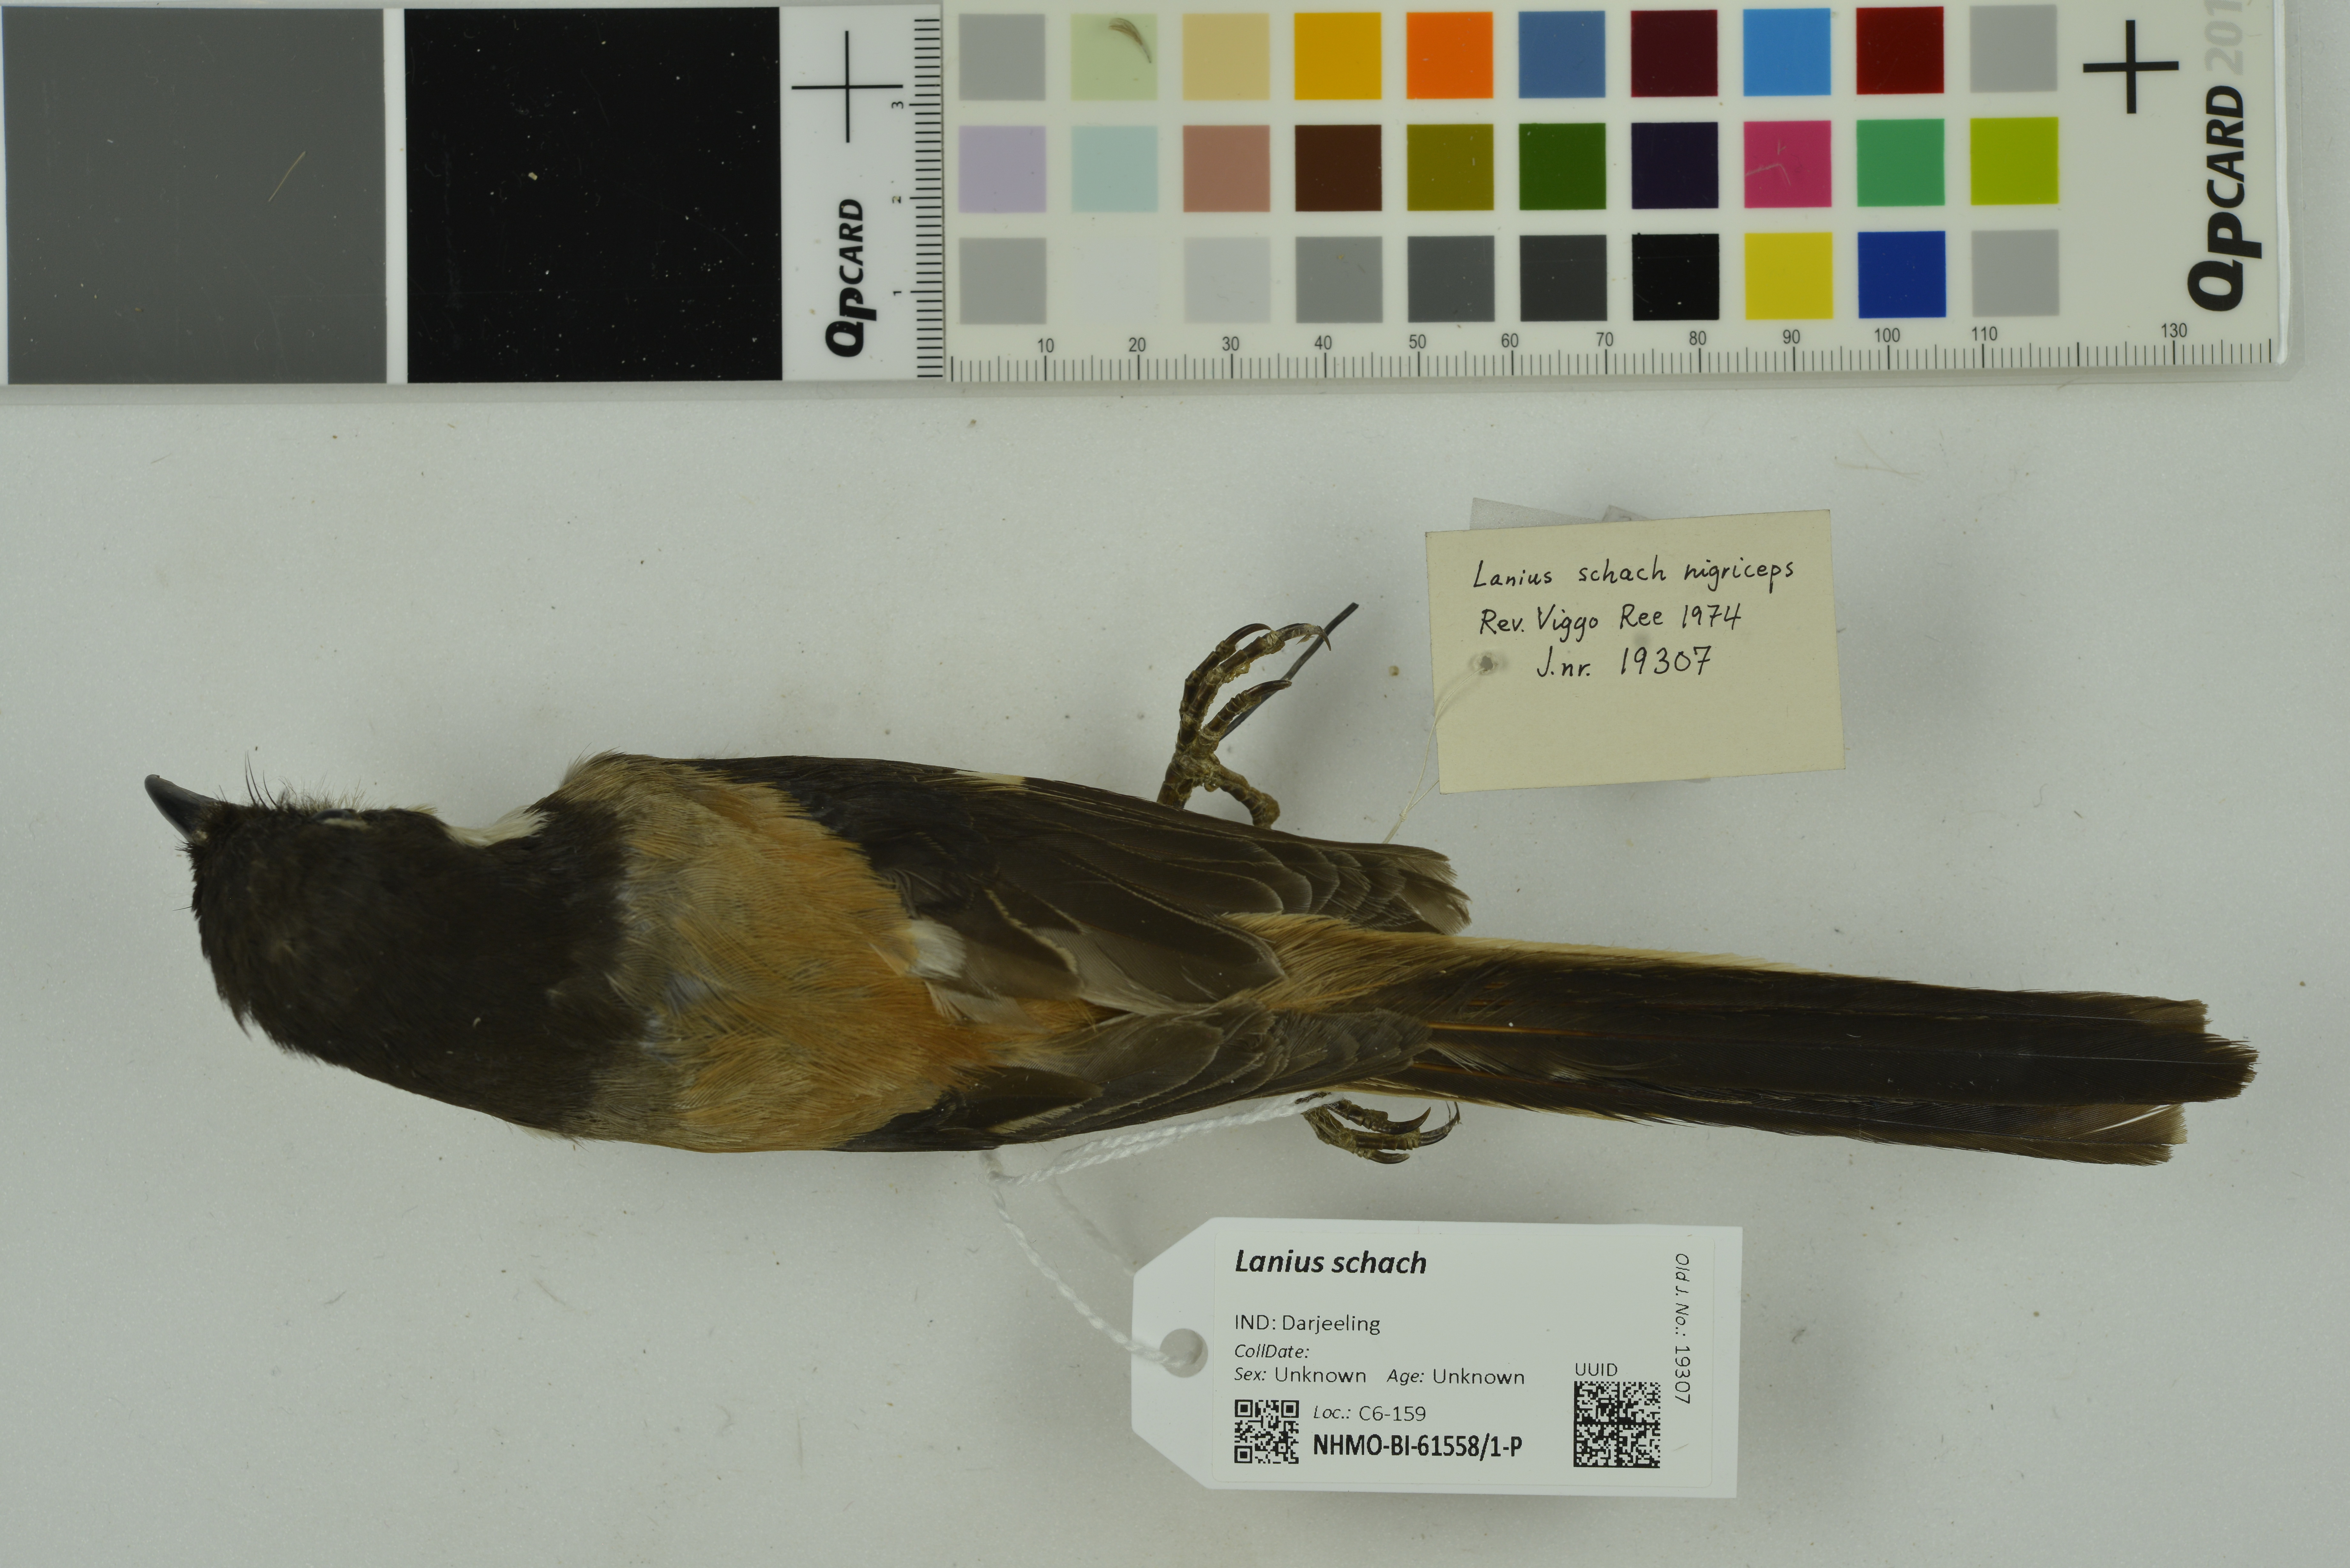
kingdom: Animalia
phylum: Chordata
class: Aves
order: Passeriformes
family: Laniidae
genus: Lanius
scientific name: Lanius schach
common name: Long-tailed shrike
